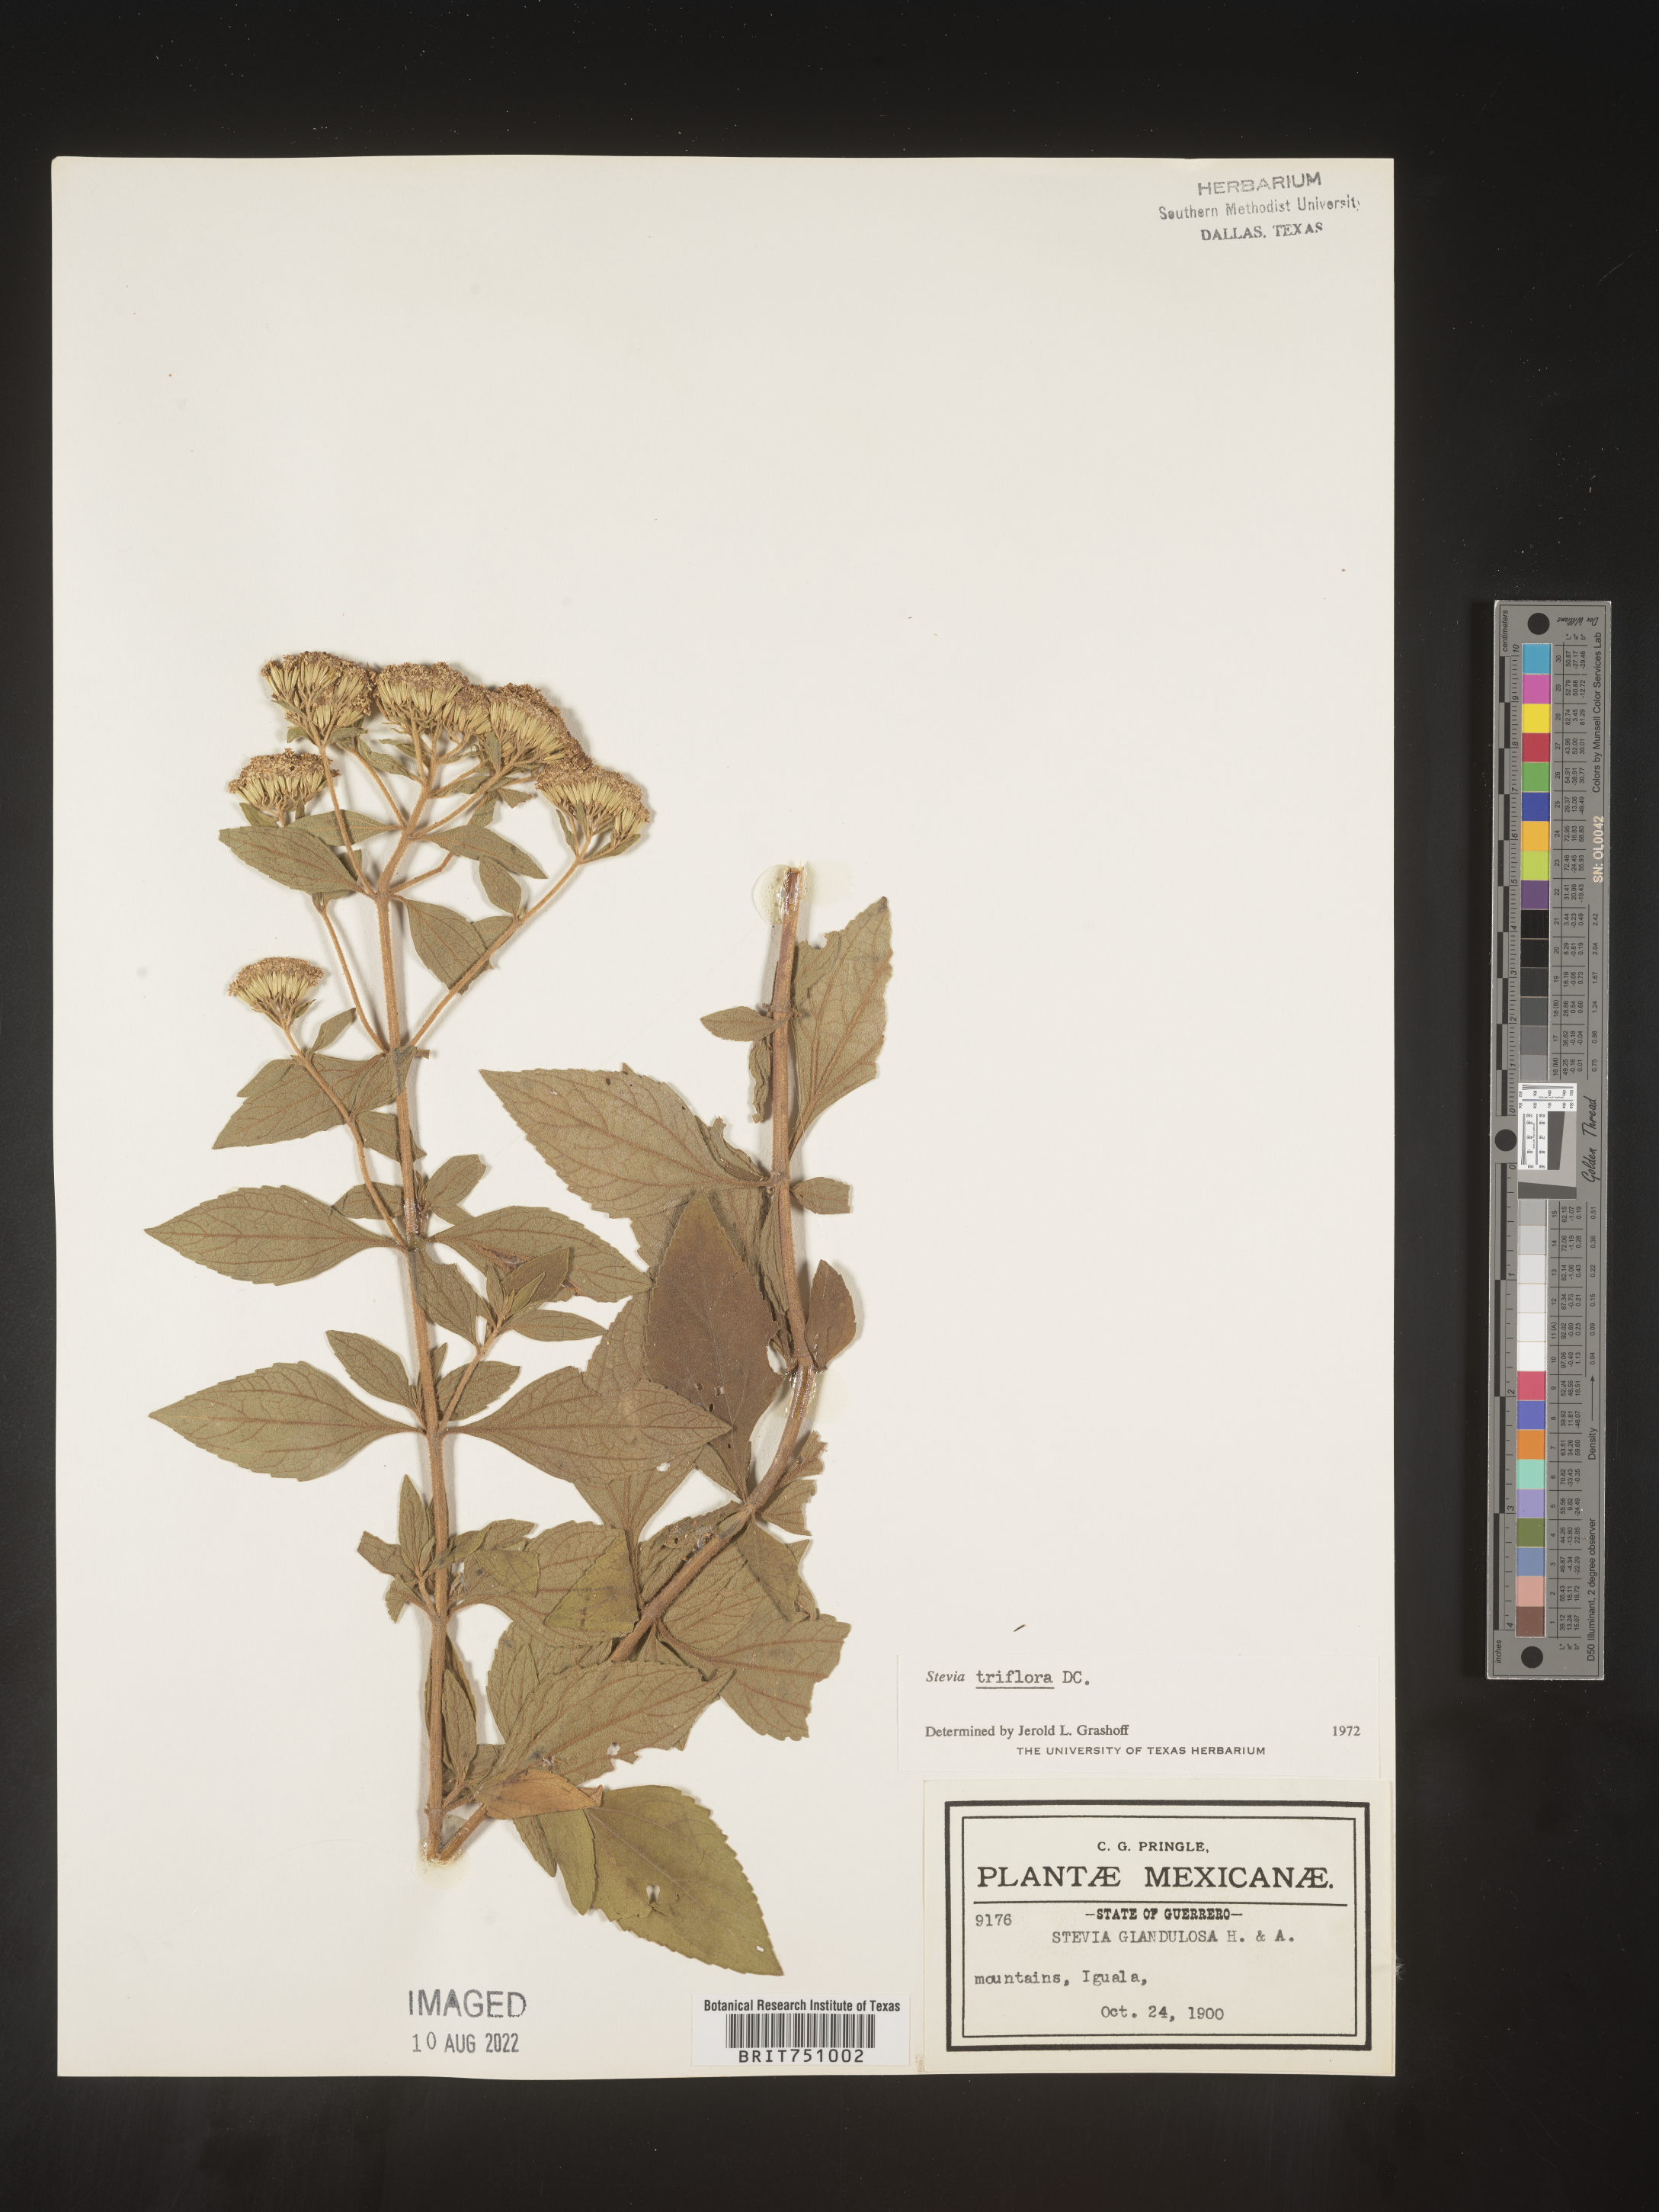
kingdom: Plantae
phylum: Tracheophyta
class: Magnoliopsida
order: Asterales
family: Asteraceae
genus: Stevia
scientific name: Stevia
